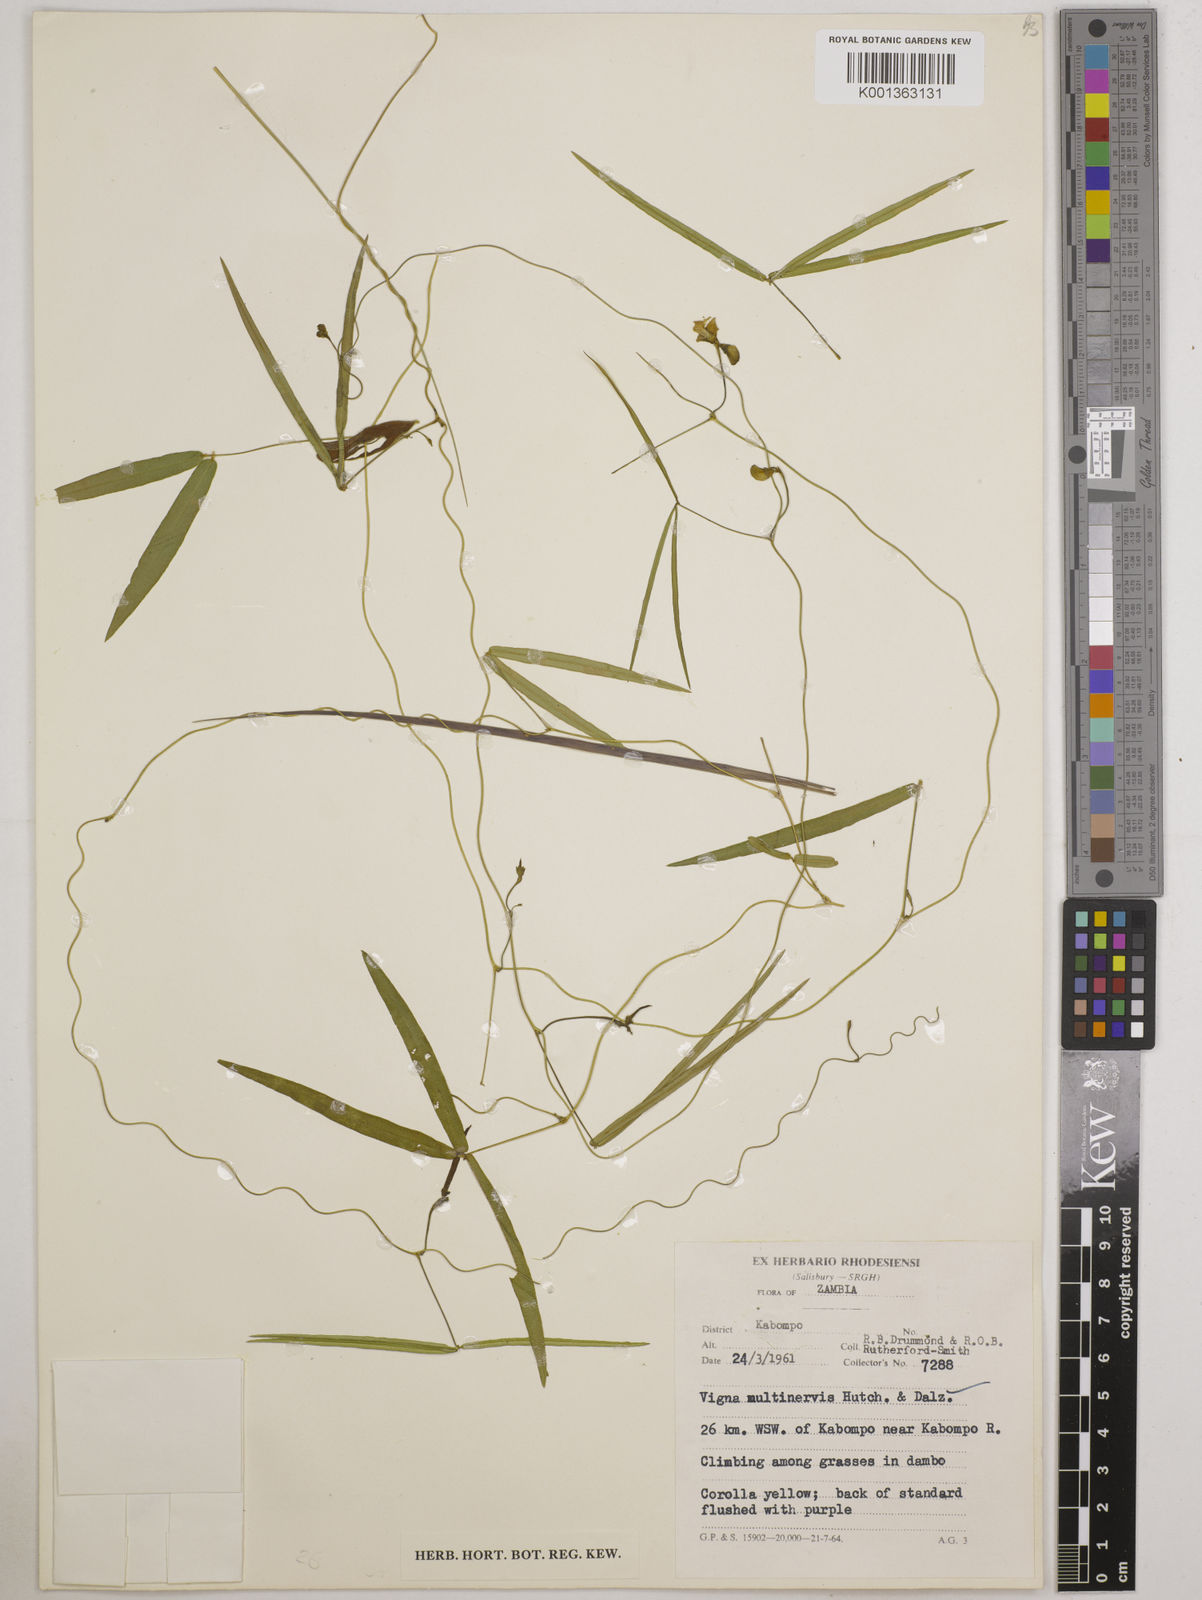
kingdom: Plantae
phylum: Tracheophyta
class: Magnoliopsida
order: Fabales
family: Fabaceae
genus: Vigna
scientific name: Vigna multinervis
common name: Fula-pulaar
